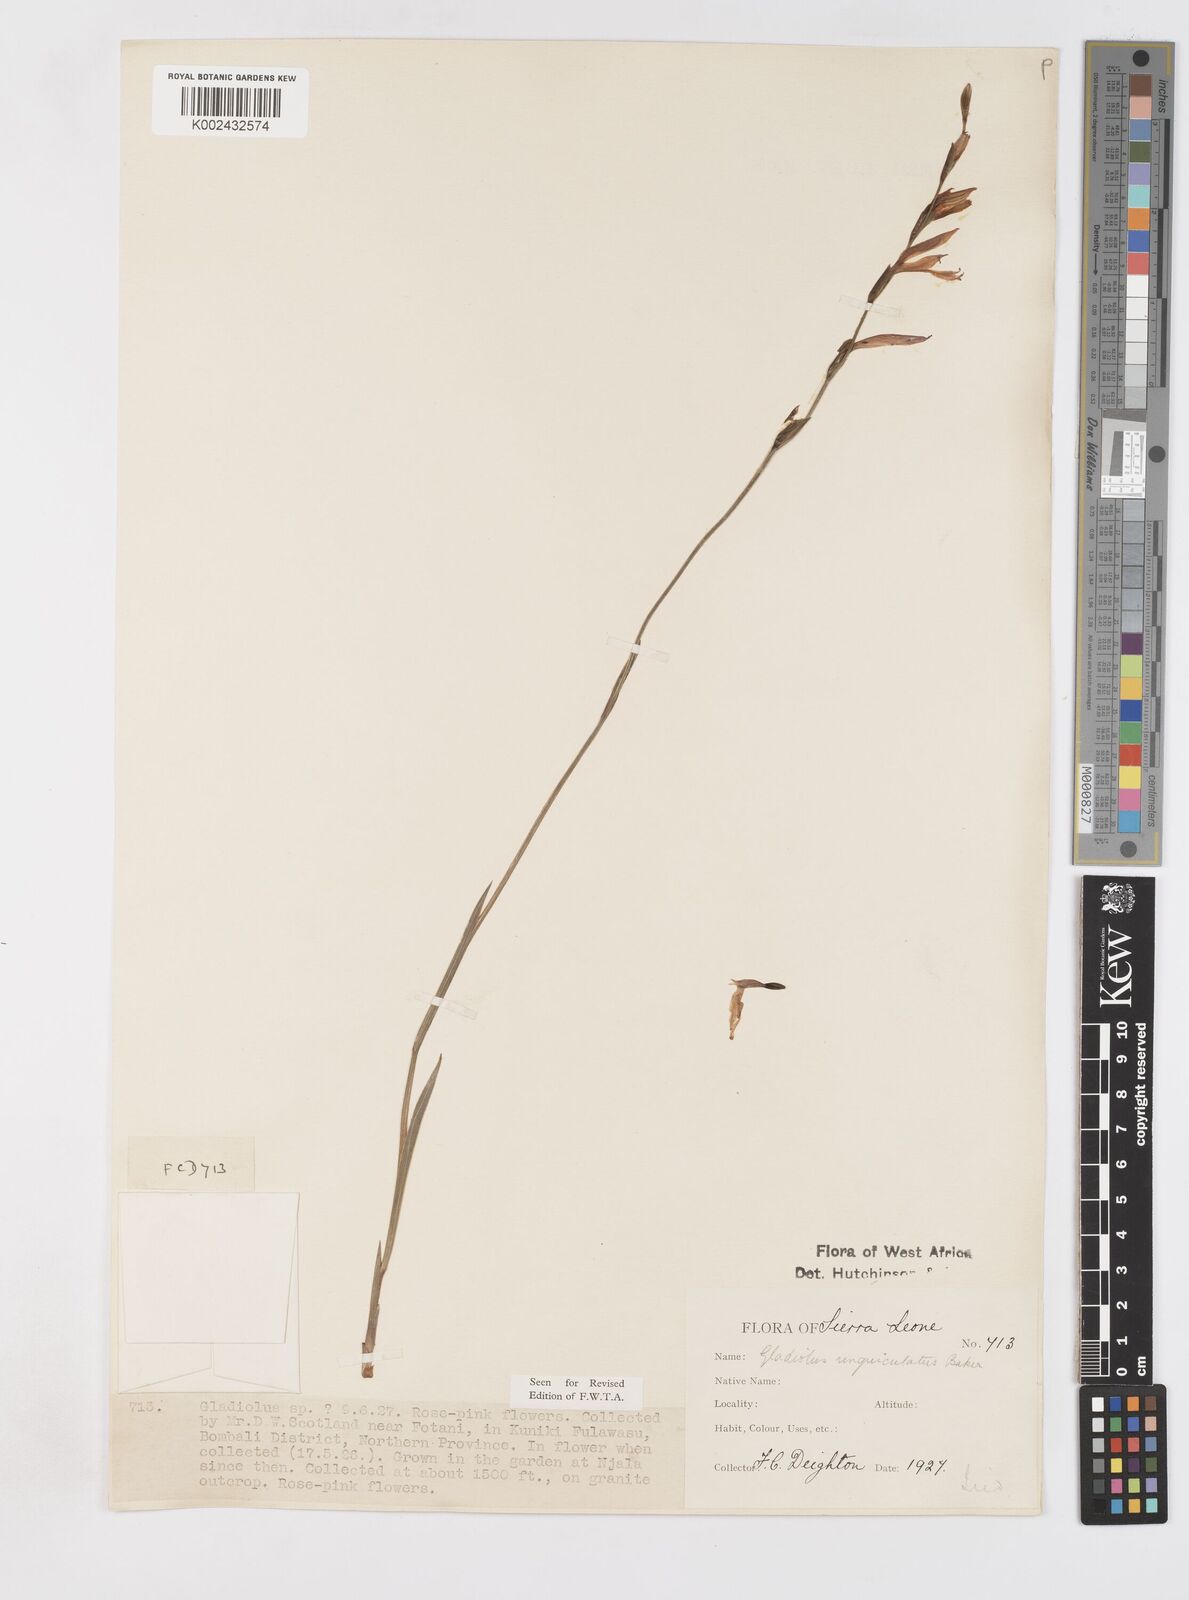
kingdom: Plantae
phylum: Tracheophyta
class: Liliopsida
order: Asparagales
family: Iridaceae
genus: Gladiolus
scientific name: Gladiolus unguiculatus
